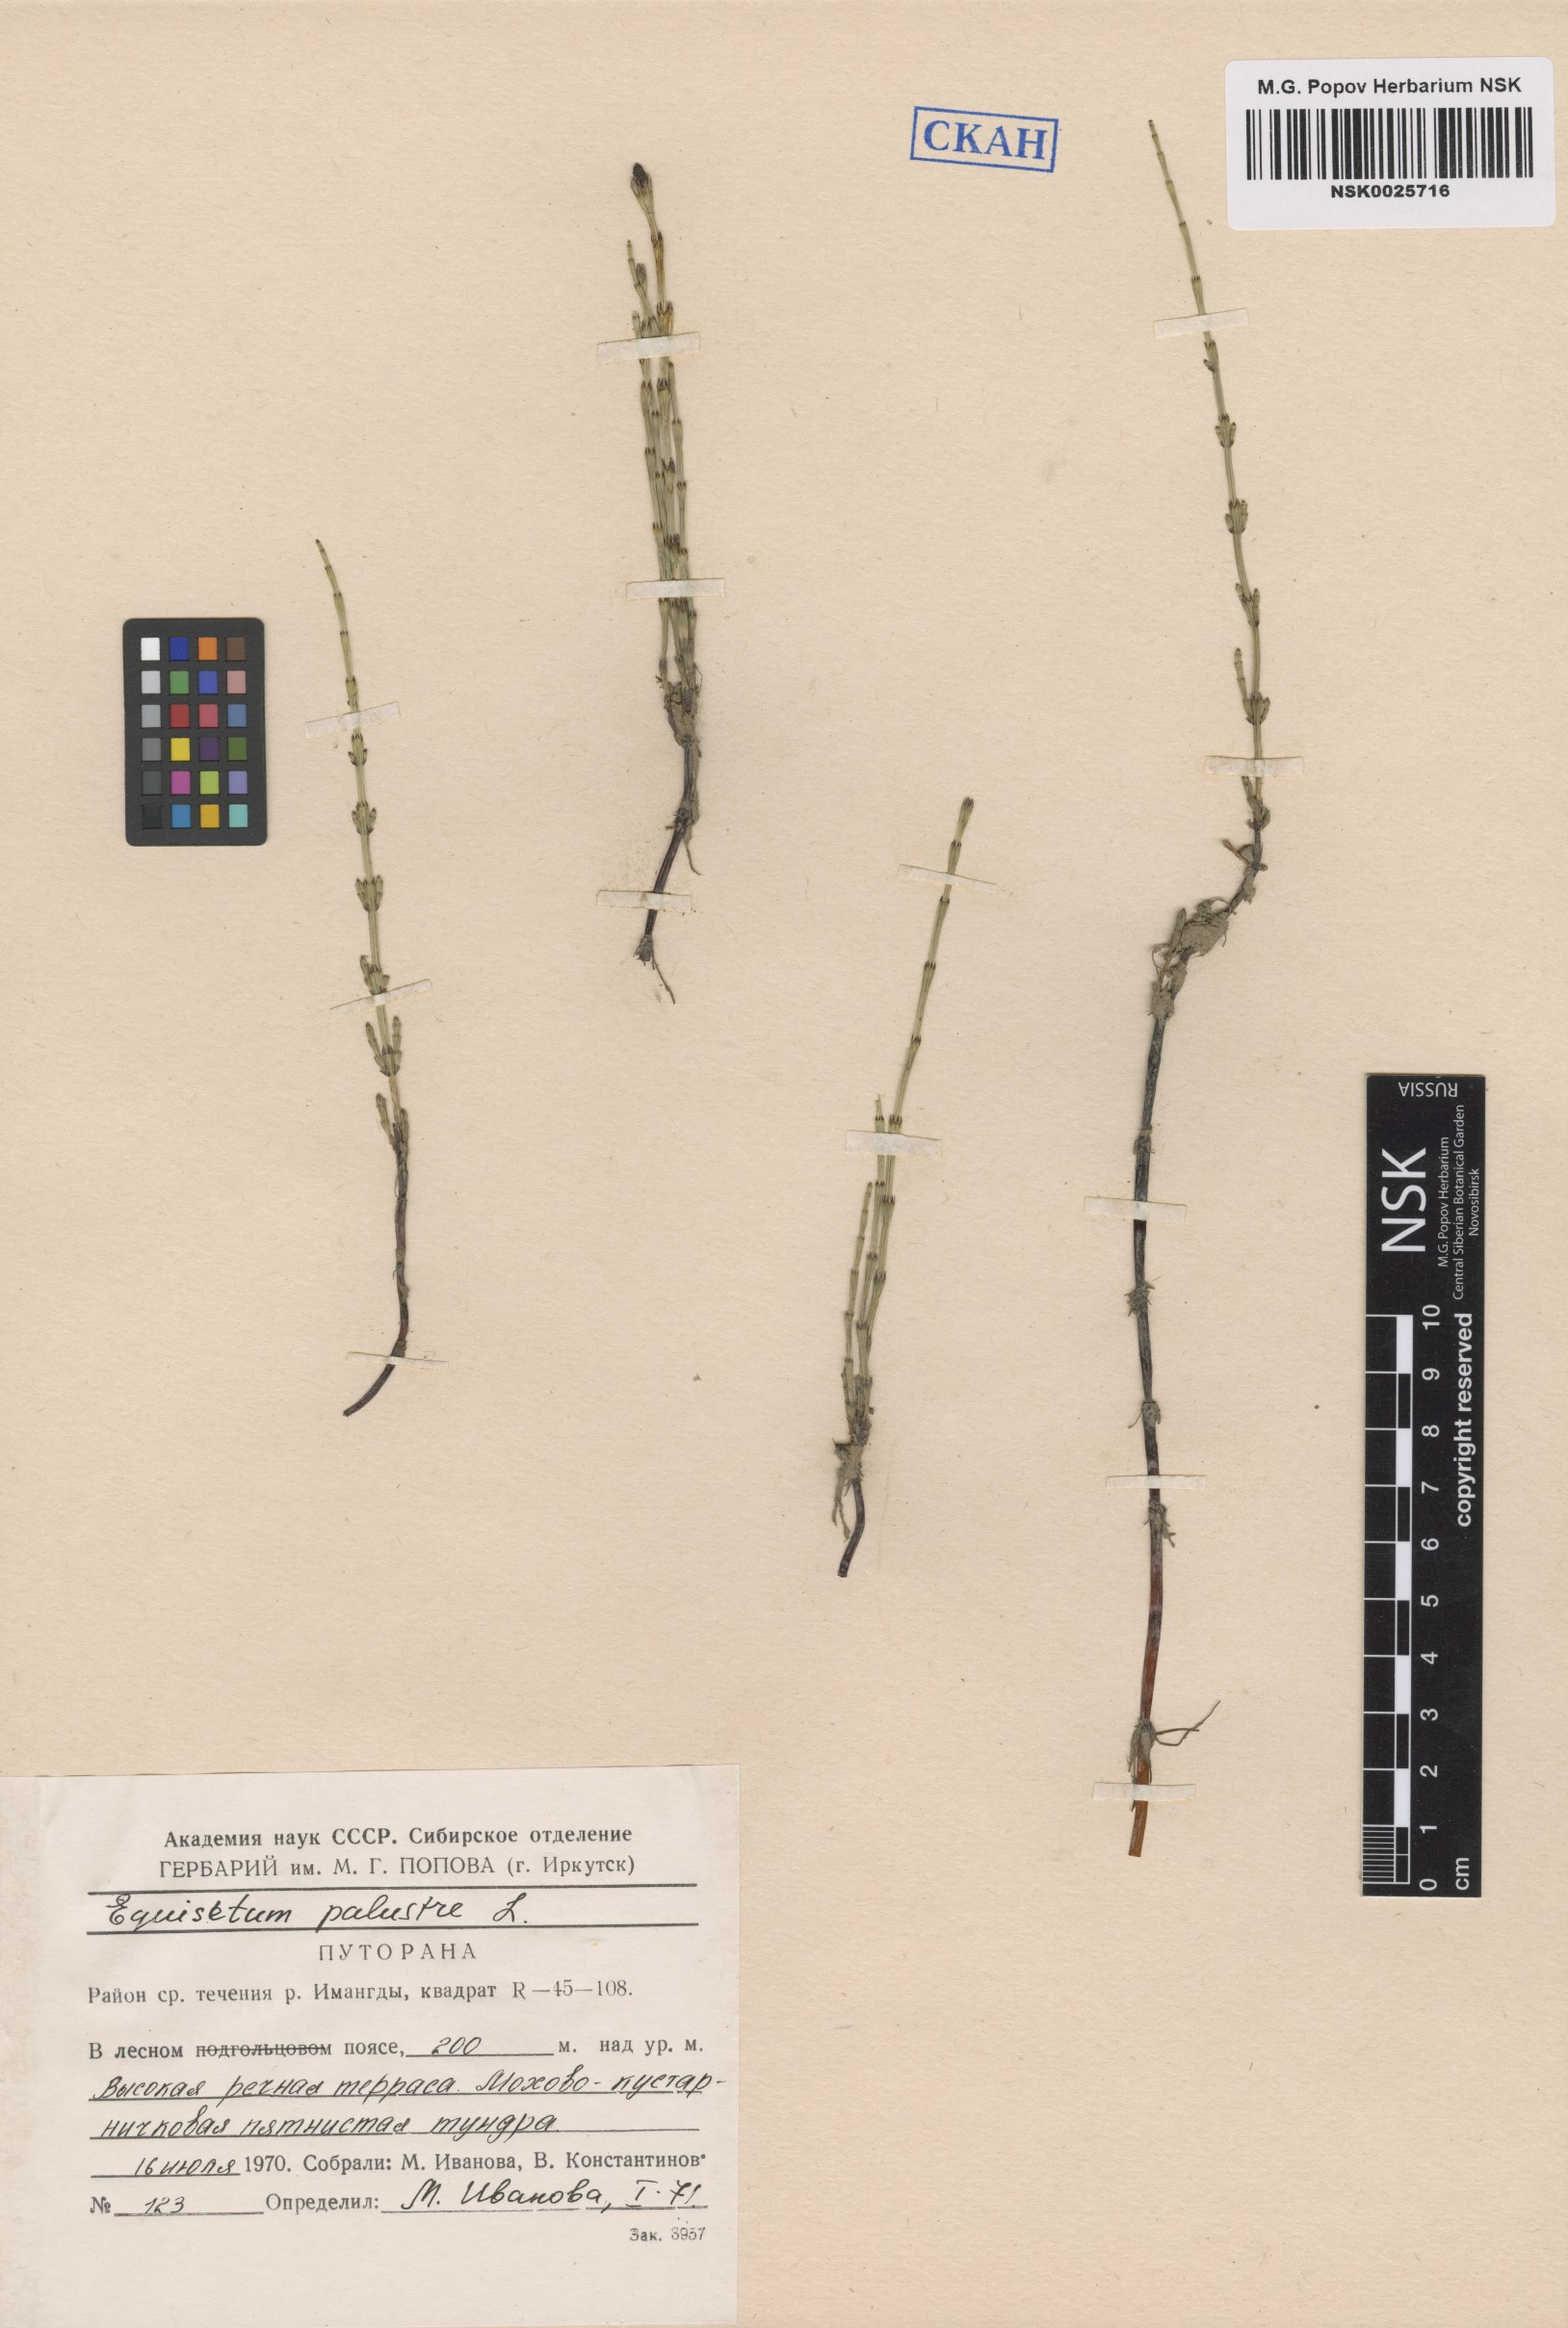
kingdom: Plantae
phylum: Tracheophyta
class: Polypodiopsida
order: Equisetales
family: Equisetaceae
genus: Equisetum
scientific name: Equisetum palustre
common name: Marsh horsetail
